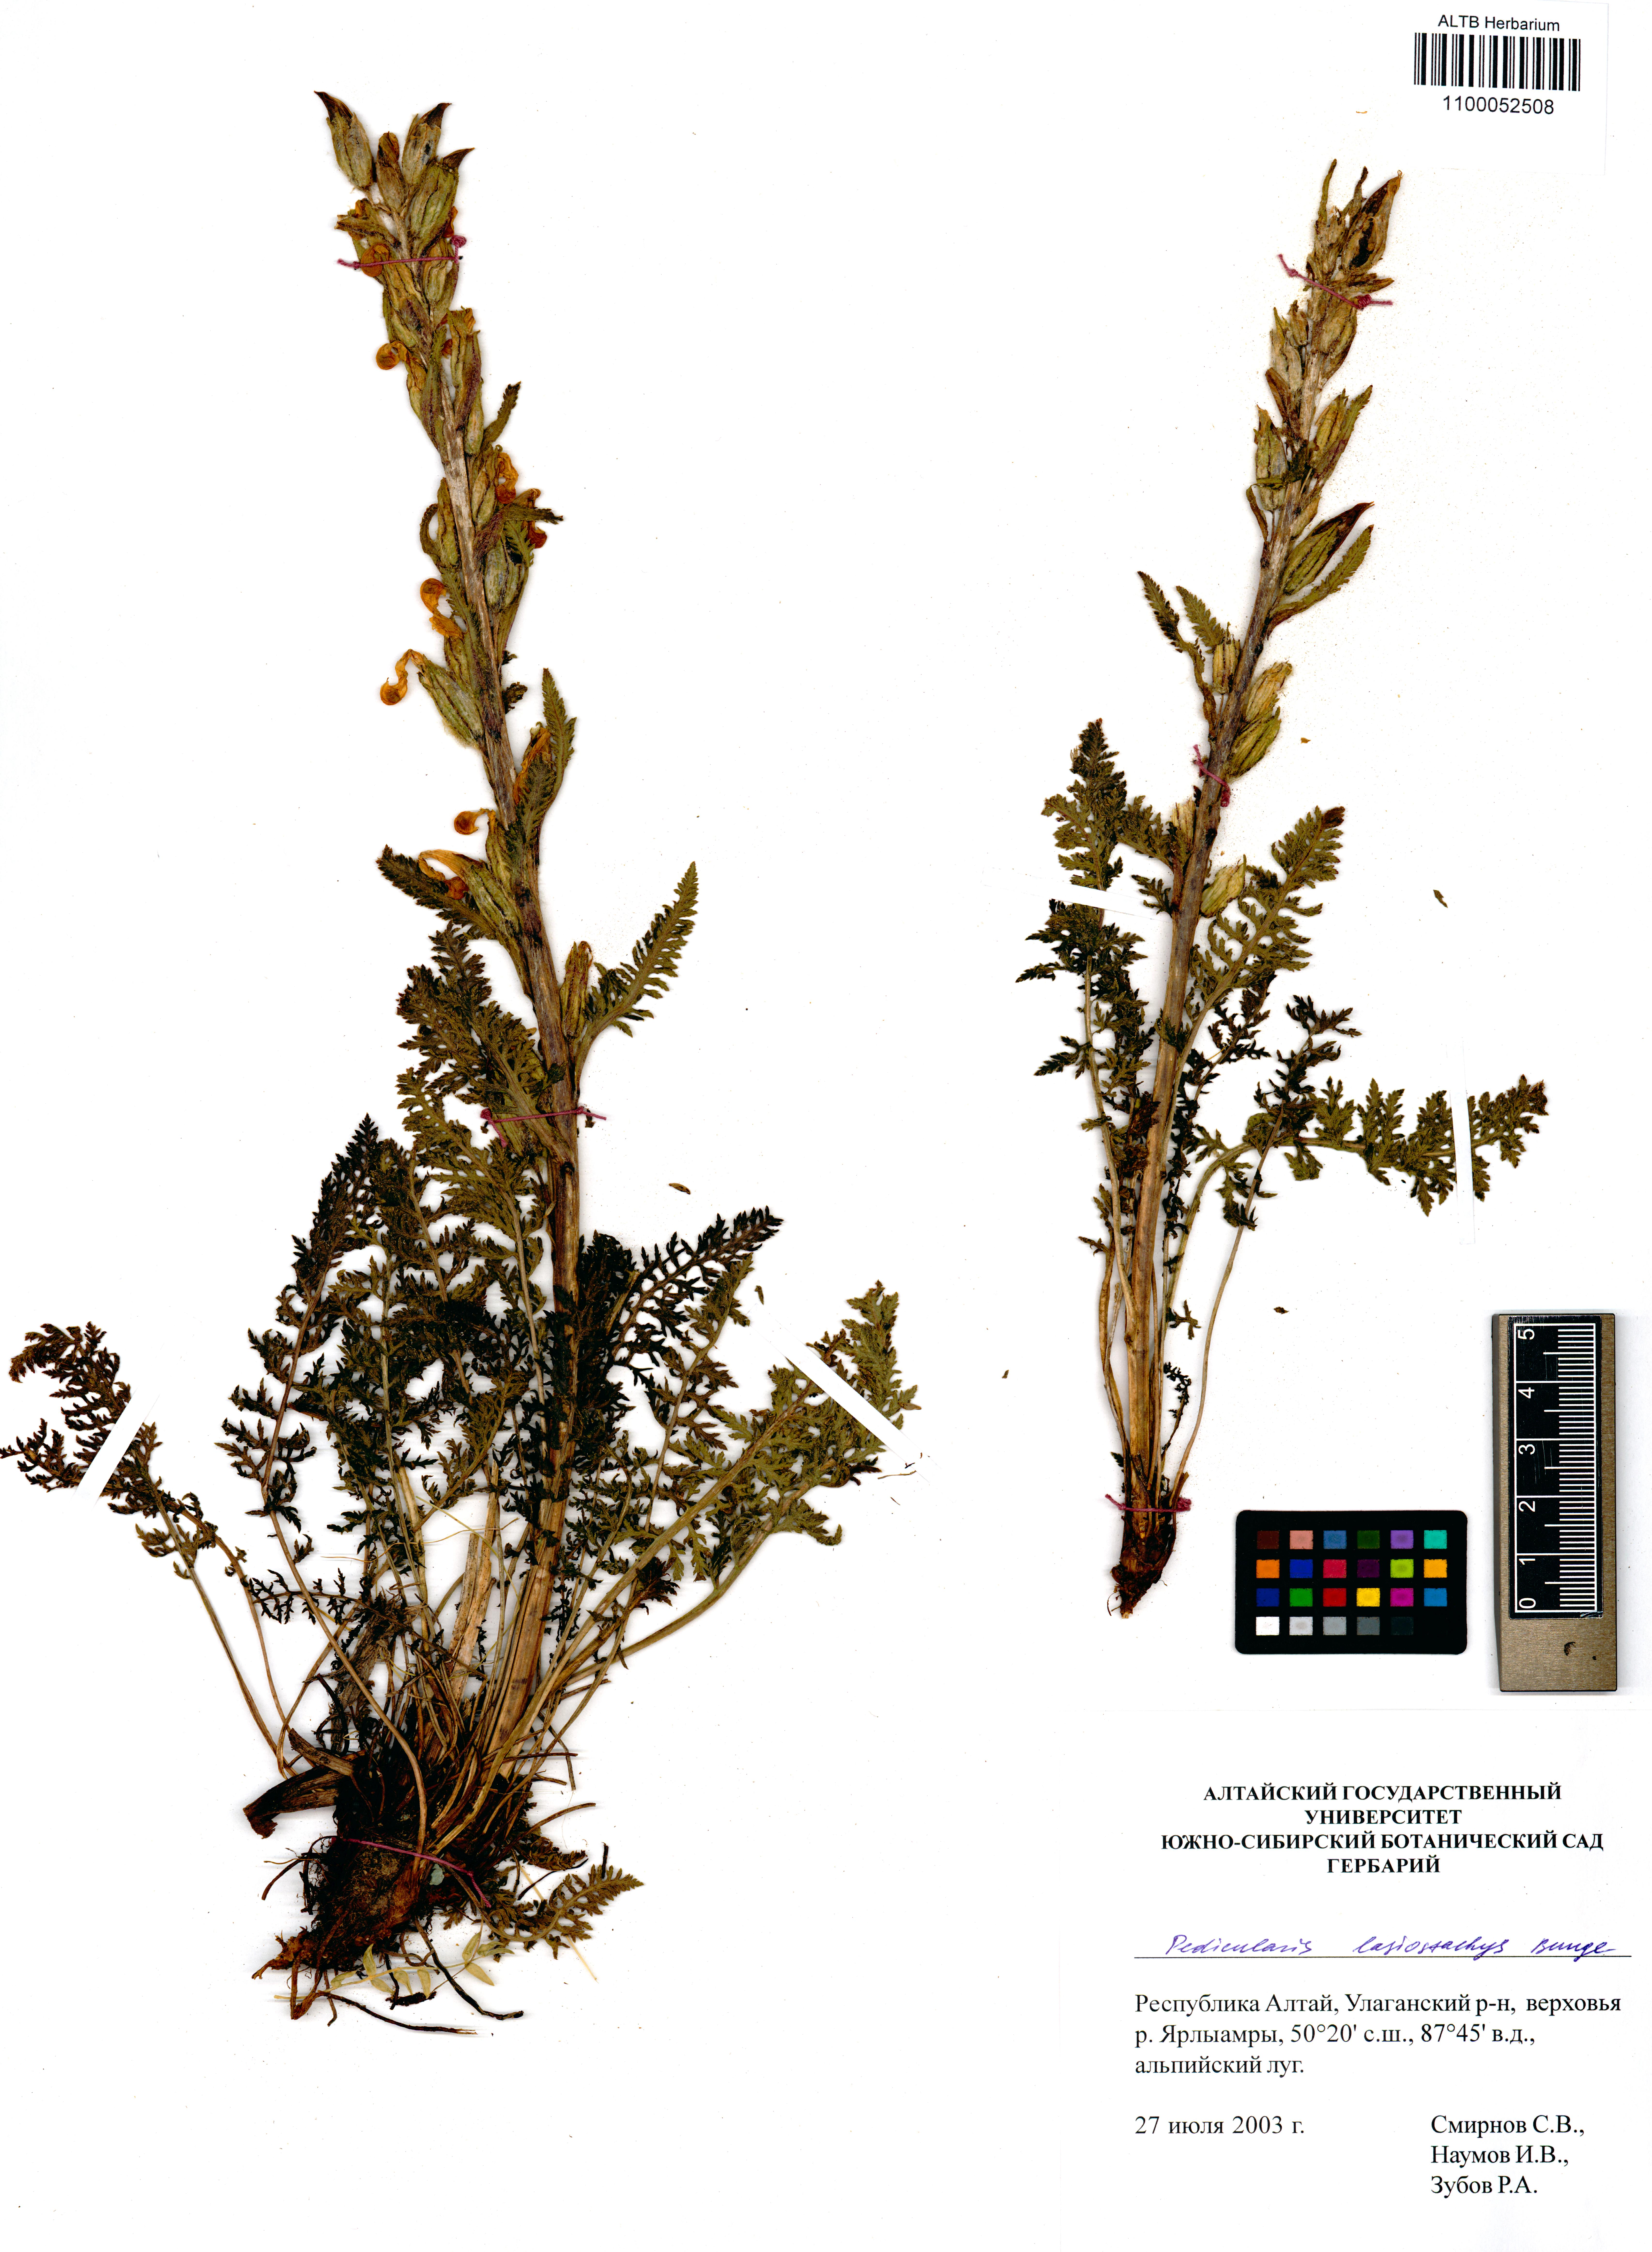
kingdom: Plantae
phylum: Tracheophyta
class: Magnoliopsida
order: Lamiales
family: Orobanchaceae
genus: Pedicularis
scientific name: Pedicularis lasiostachys
